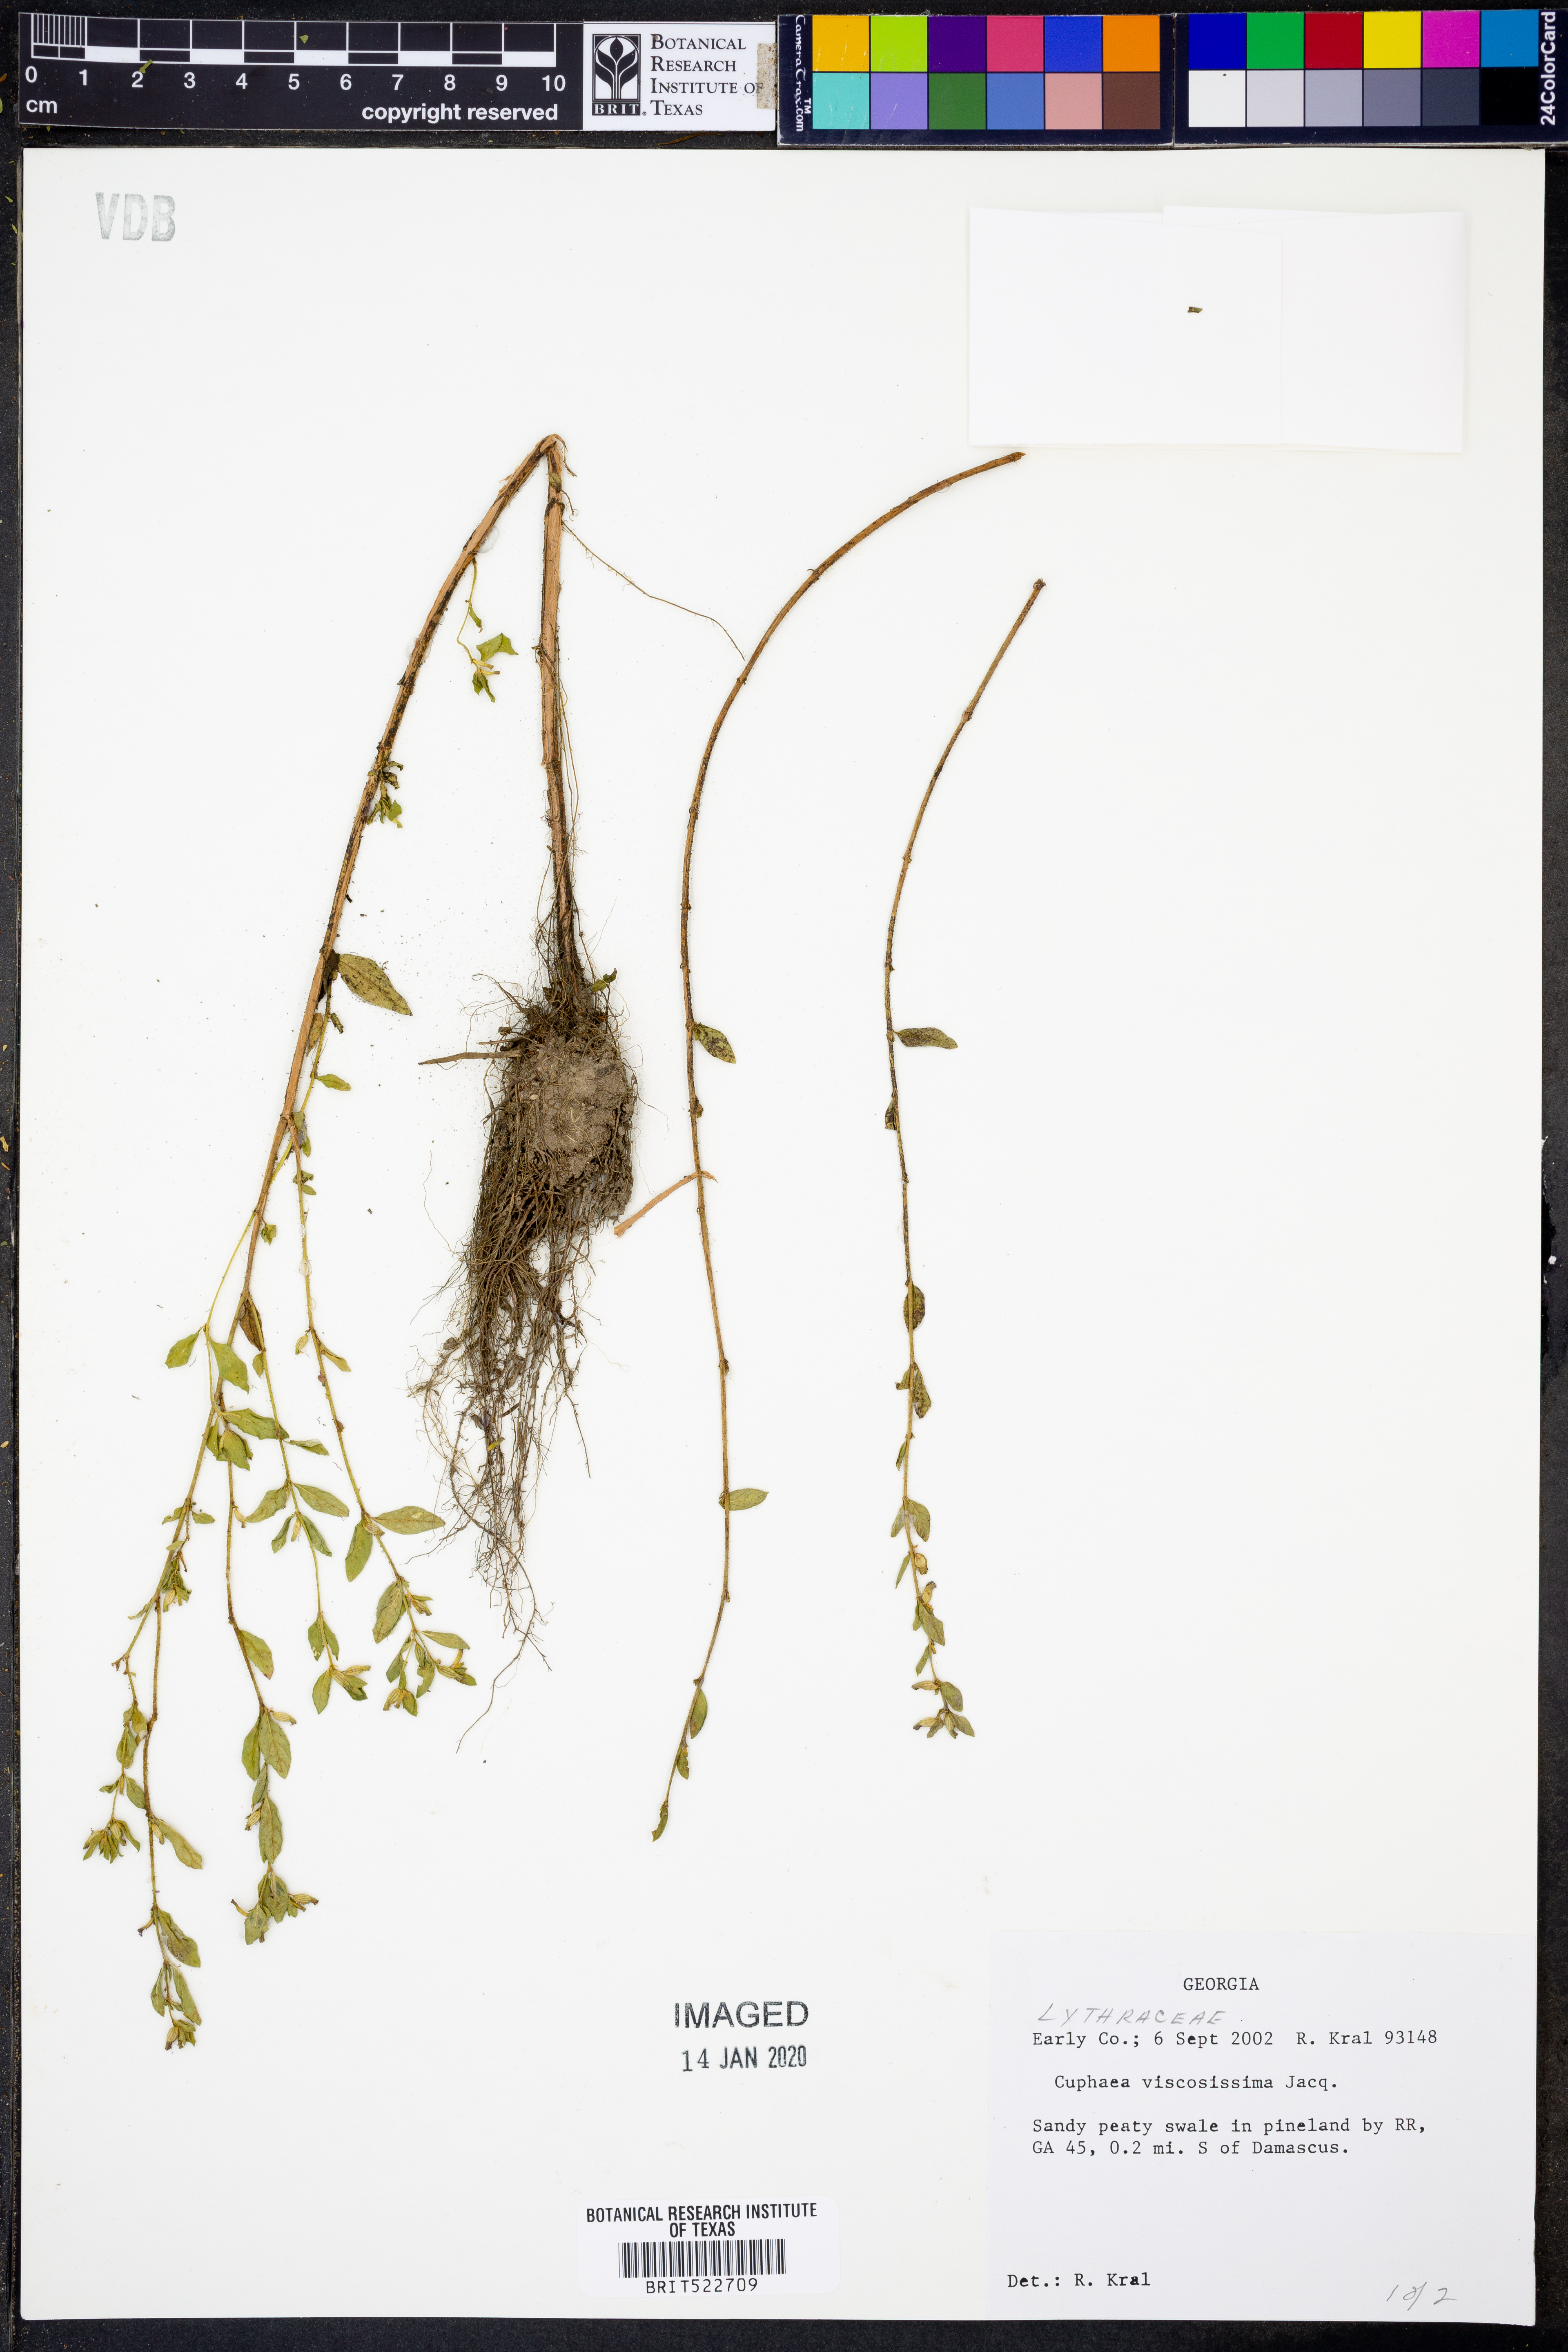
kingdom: Plantae
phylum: Tracheophyta
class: Magnoliopsida
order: Myrtales
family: Lythraceae
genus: Cuphea
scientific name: Cuphea viscosissima
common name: Clammy cuphea
